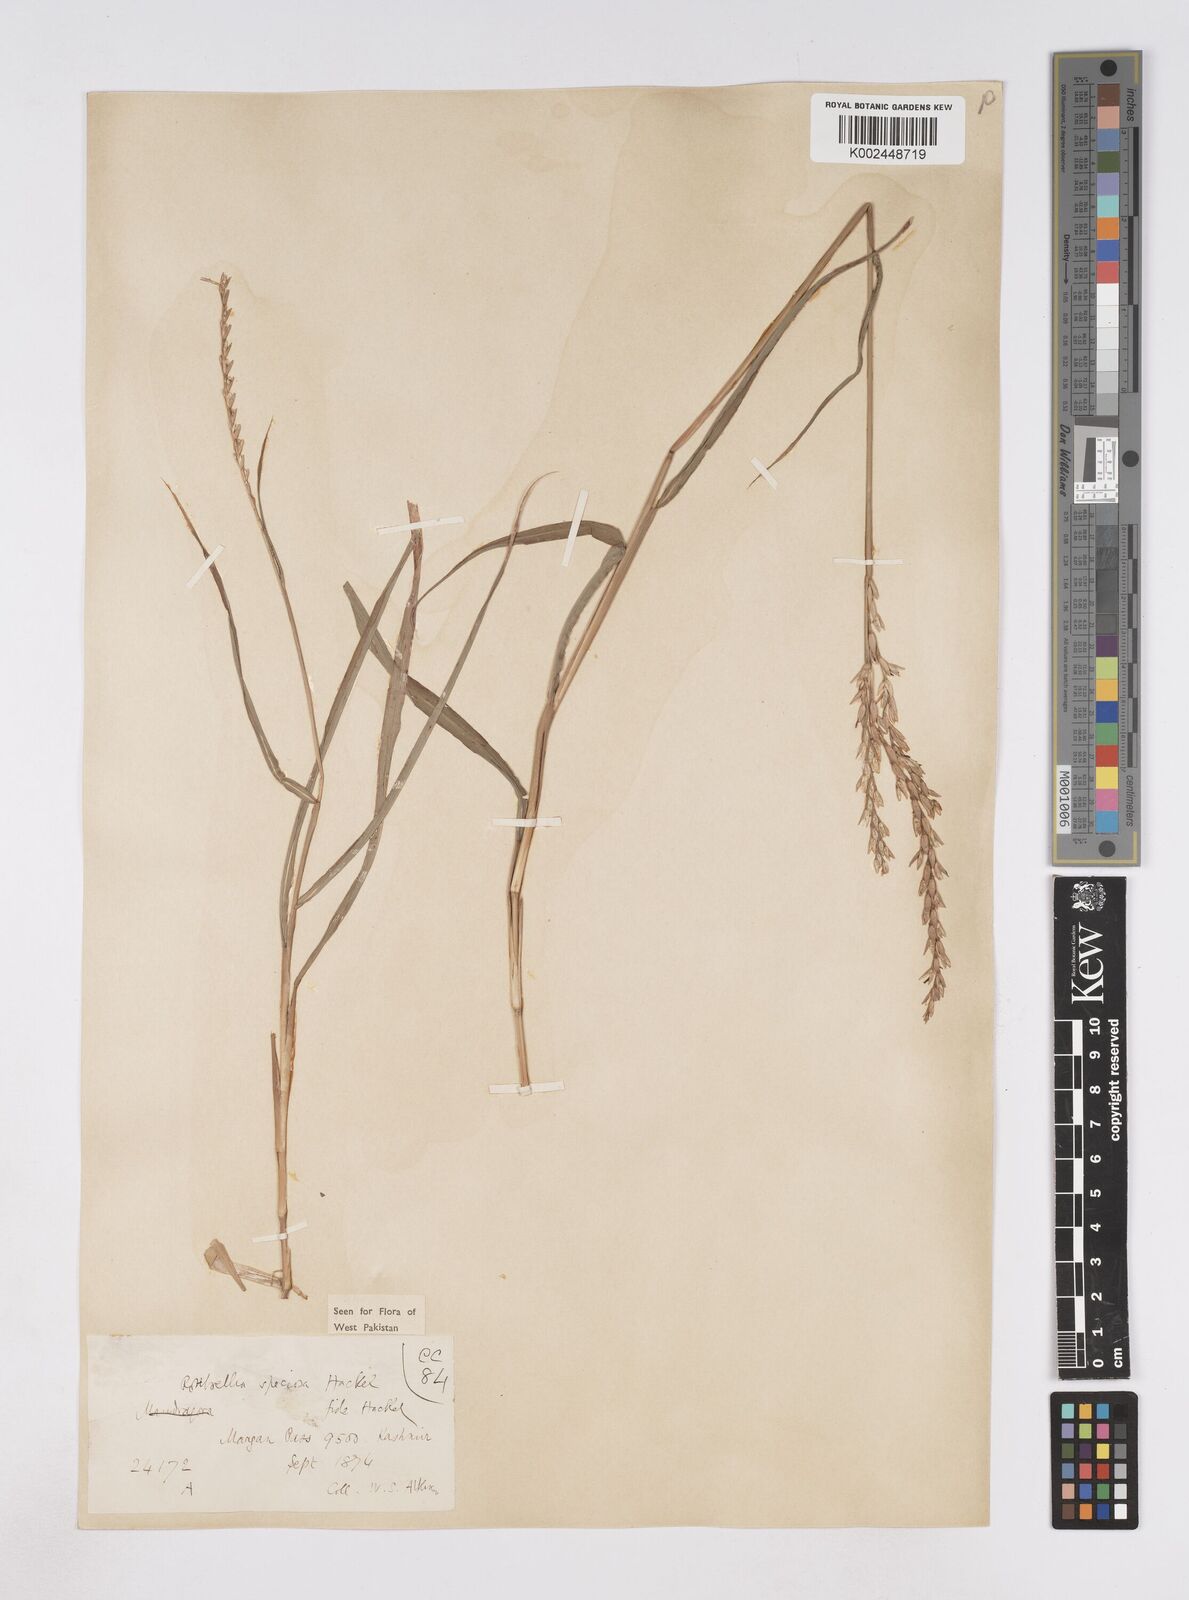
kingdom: Plantae
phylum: Tracheophyta
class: Liliopsida
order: Poales
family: Poaceae
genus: Phacelurus
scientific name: Phacelurus speciosus
